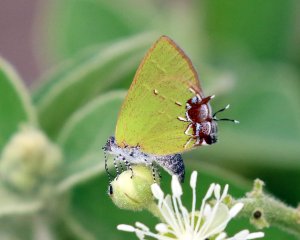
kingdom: Animalia
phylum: Arthropoda
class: Insecta
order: Lepidoptera
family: Lycaenidae
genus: Chlorostrymon
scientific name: Chlorostrymon telea
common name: Telea Hairstreak
